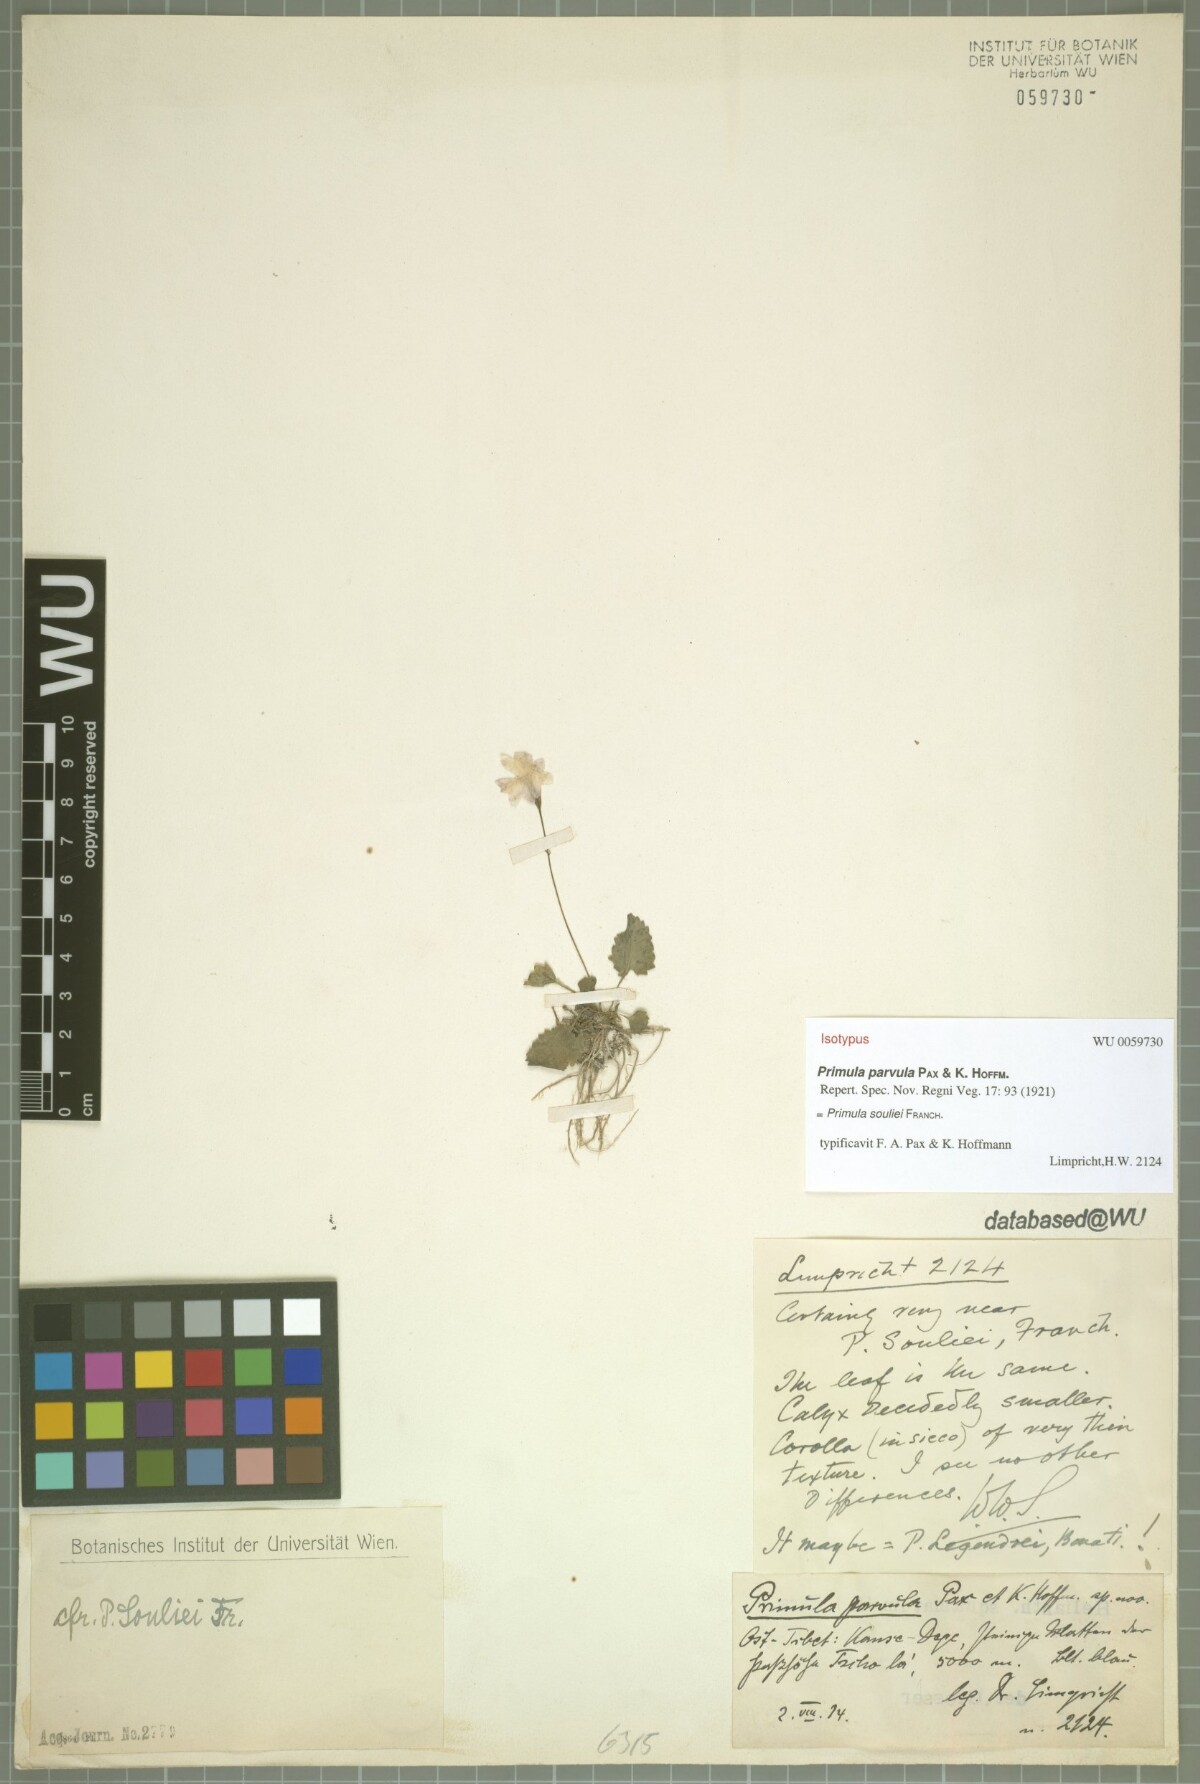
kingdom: Plantae
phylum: Tracheophyta
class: Magnoliopsida
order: Ericales
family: Primulaceae
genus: Primula
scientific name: Primula souliei
